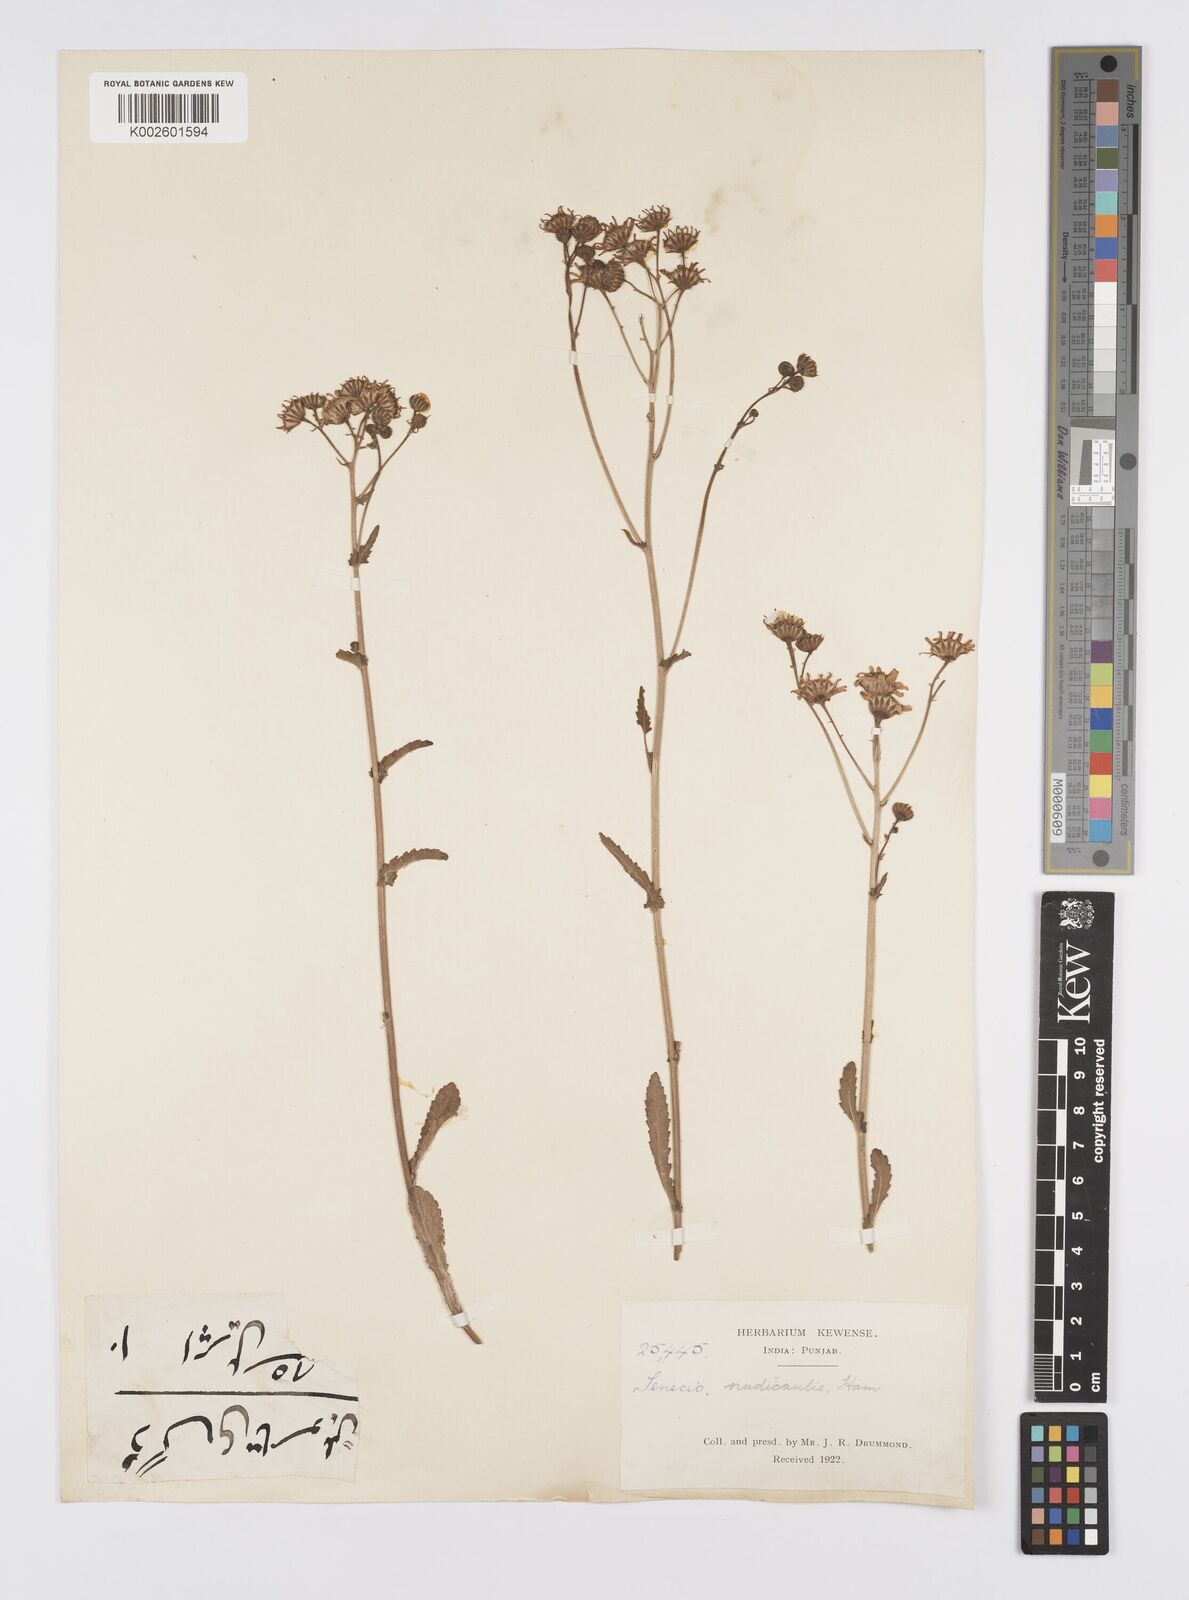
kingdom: Plantae
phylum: Tracheophyta
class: Magnoliopsida
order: Asterales
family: Asteraceae
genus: Senecio
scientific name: Senecio
